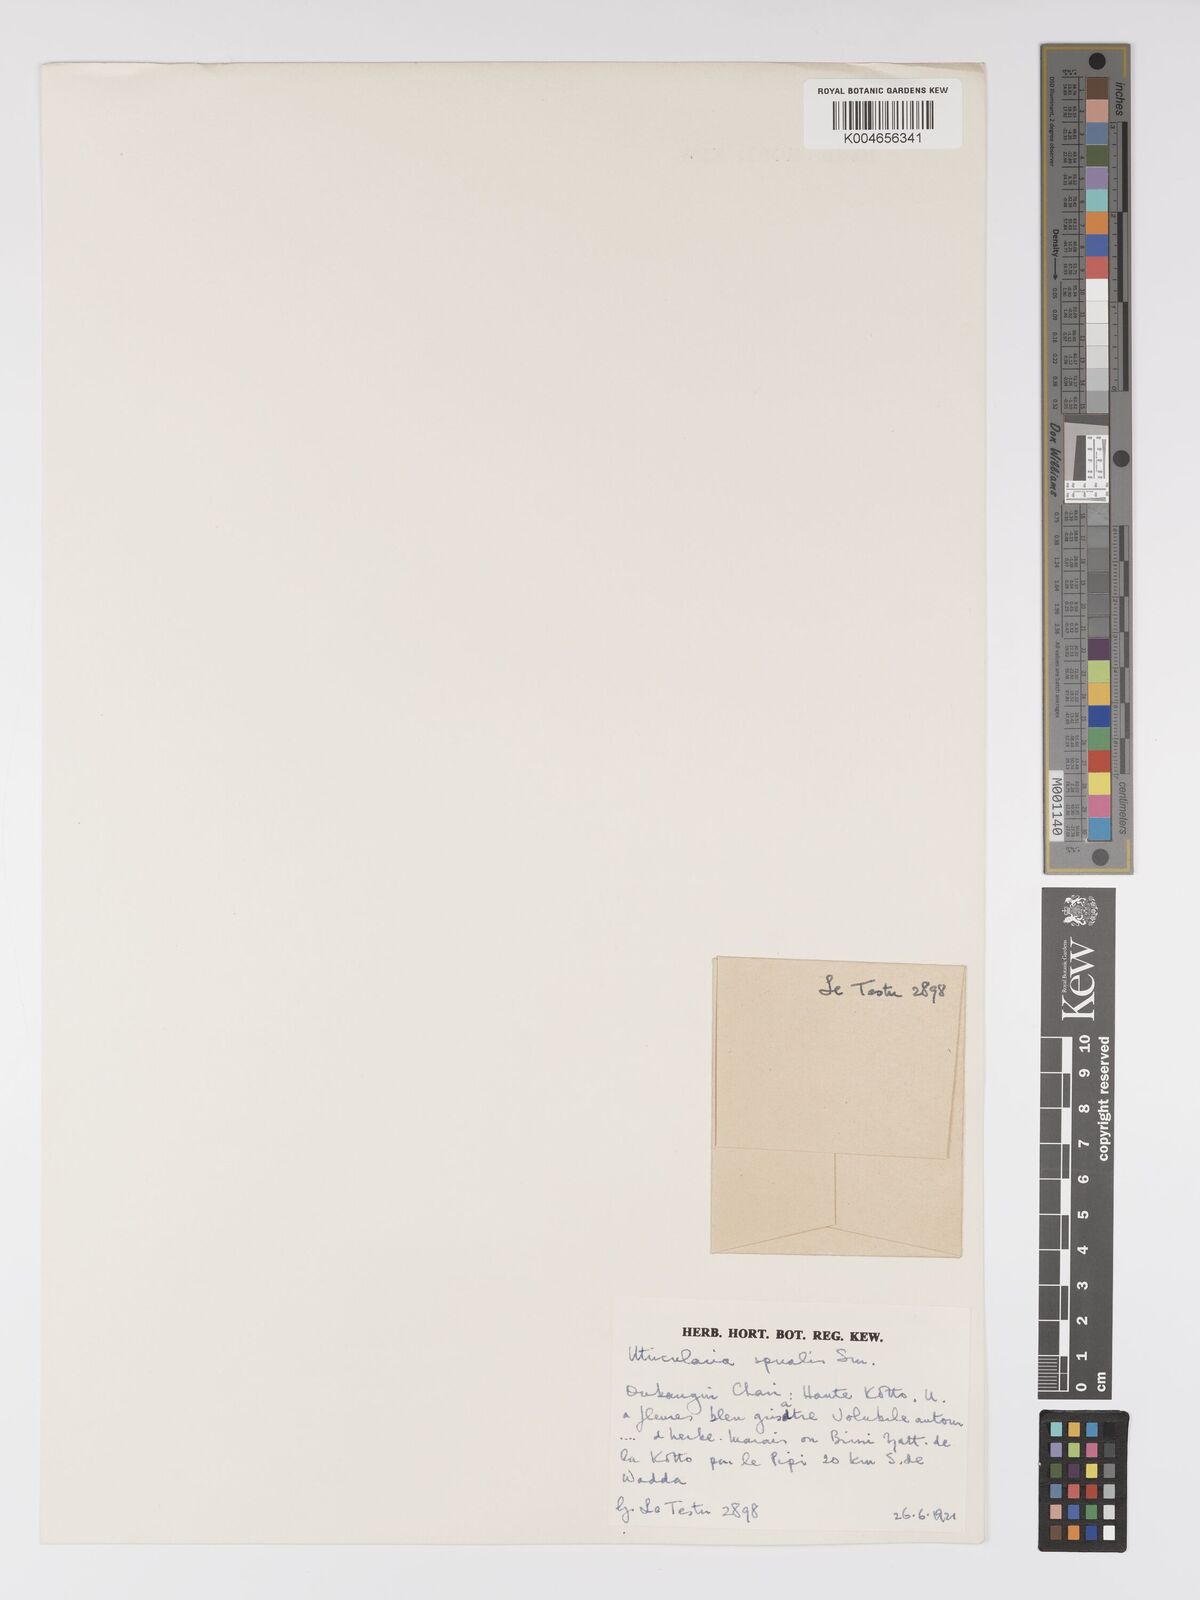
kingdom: Plantae
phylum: Tracheophyta
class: Magnoliopsida
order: Lamiales
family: Lentibulariaceae
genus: Utricularia
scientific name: Utricularia spiralis
